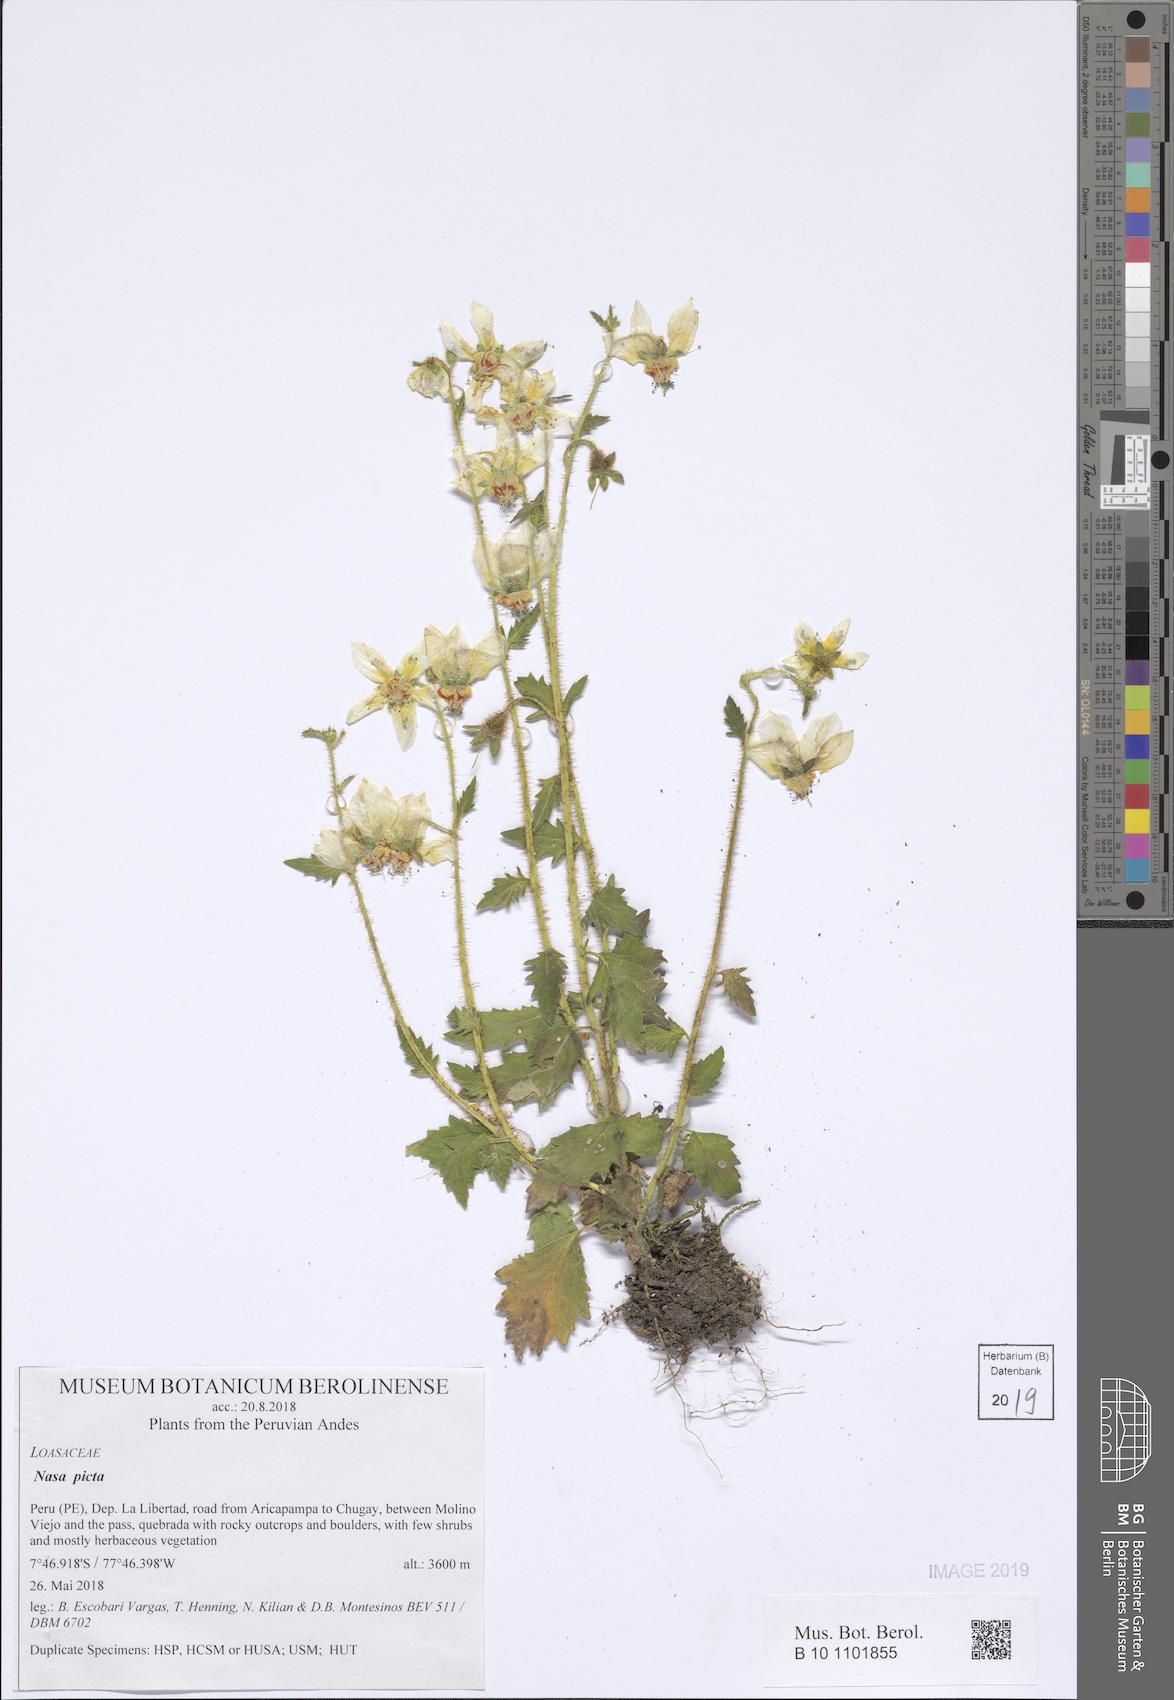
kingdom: Plantae
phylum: Tracheophyta
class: Magnoliopsida
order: Cornales
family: Loasaceae
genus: Nasa
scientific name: Nasa picta
